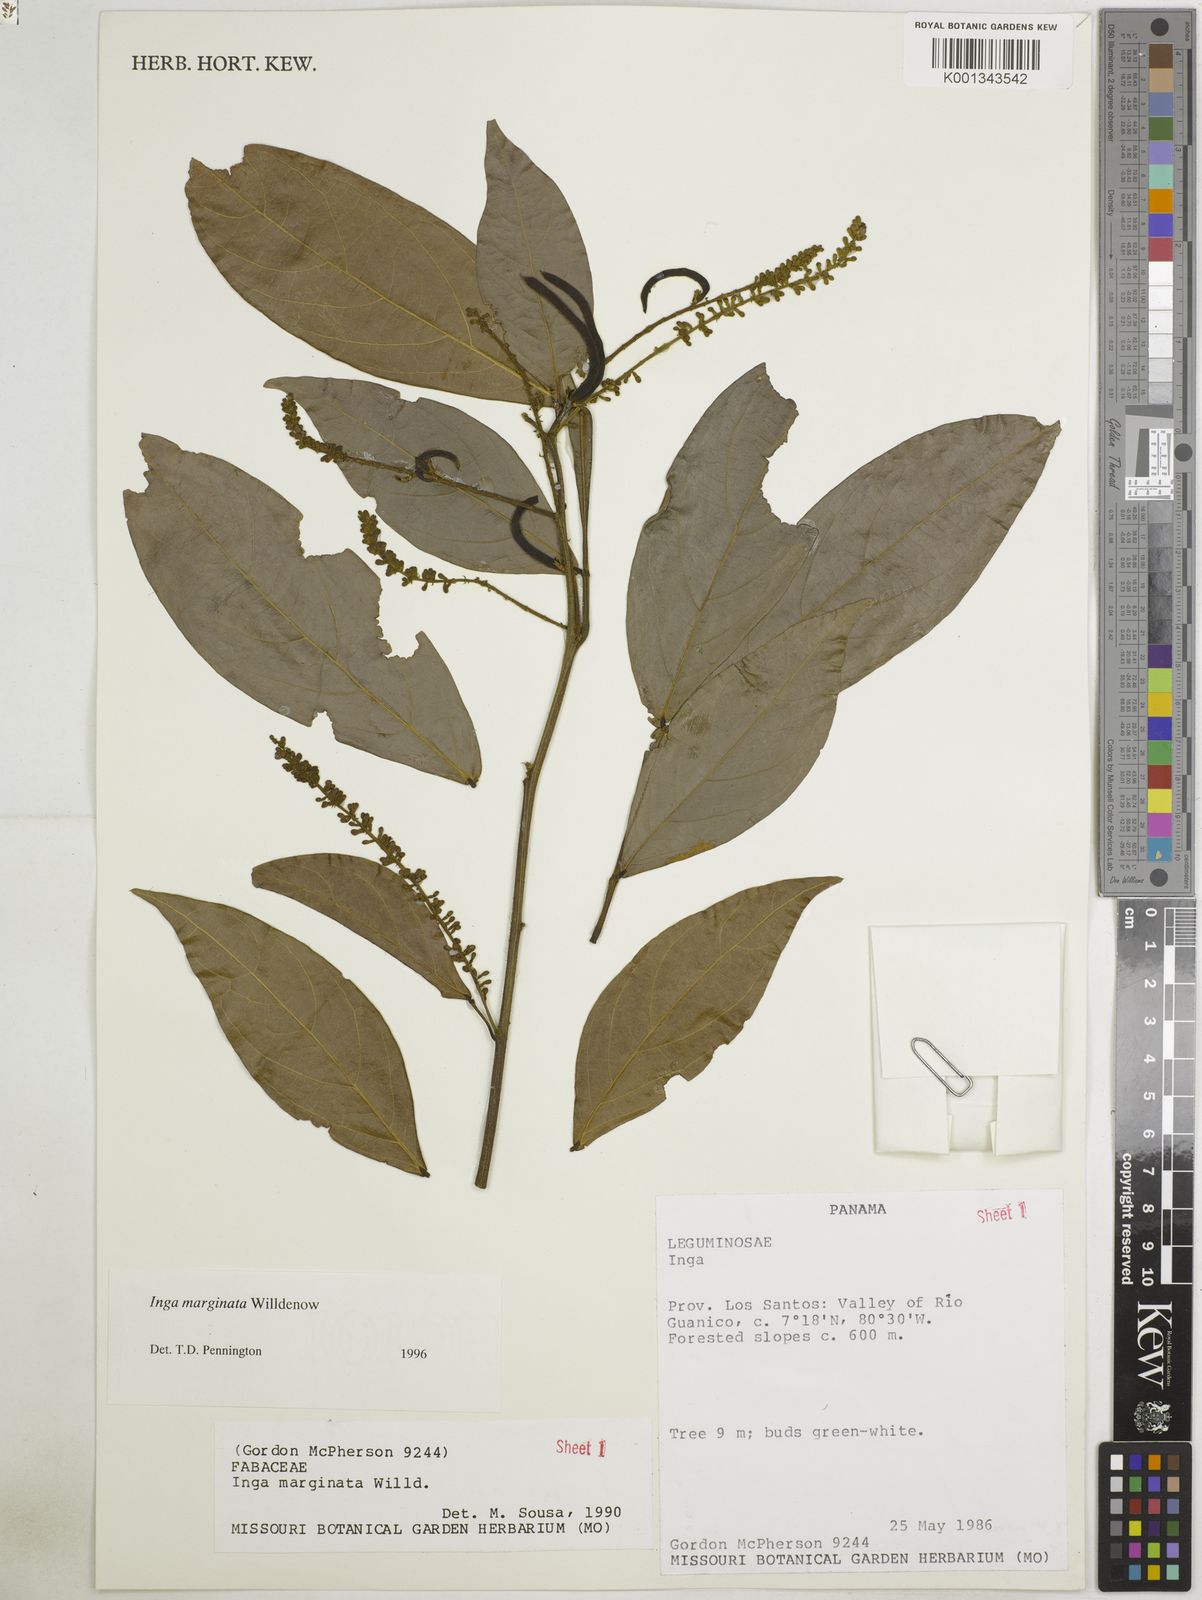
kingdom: Plantae
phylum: Tracheophyta
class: Magnoliopsida
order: Fabales
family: Fabaceae
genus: Inga
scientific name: Inga marginata
